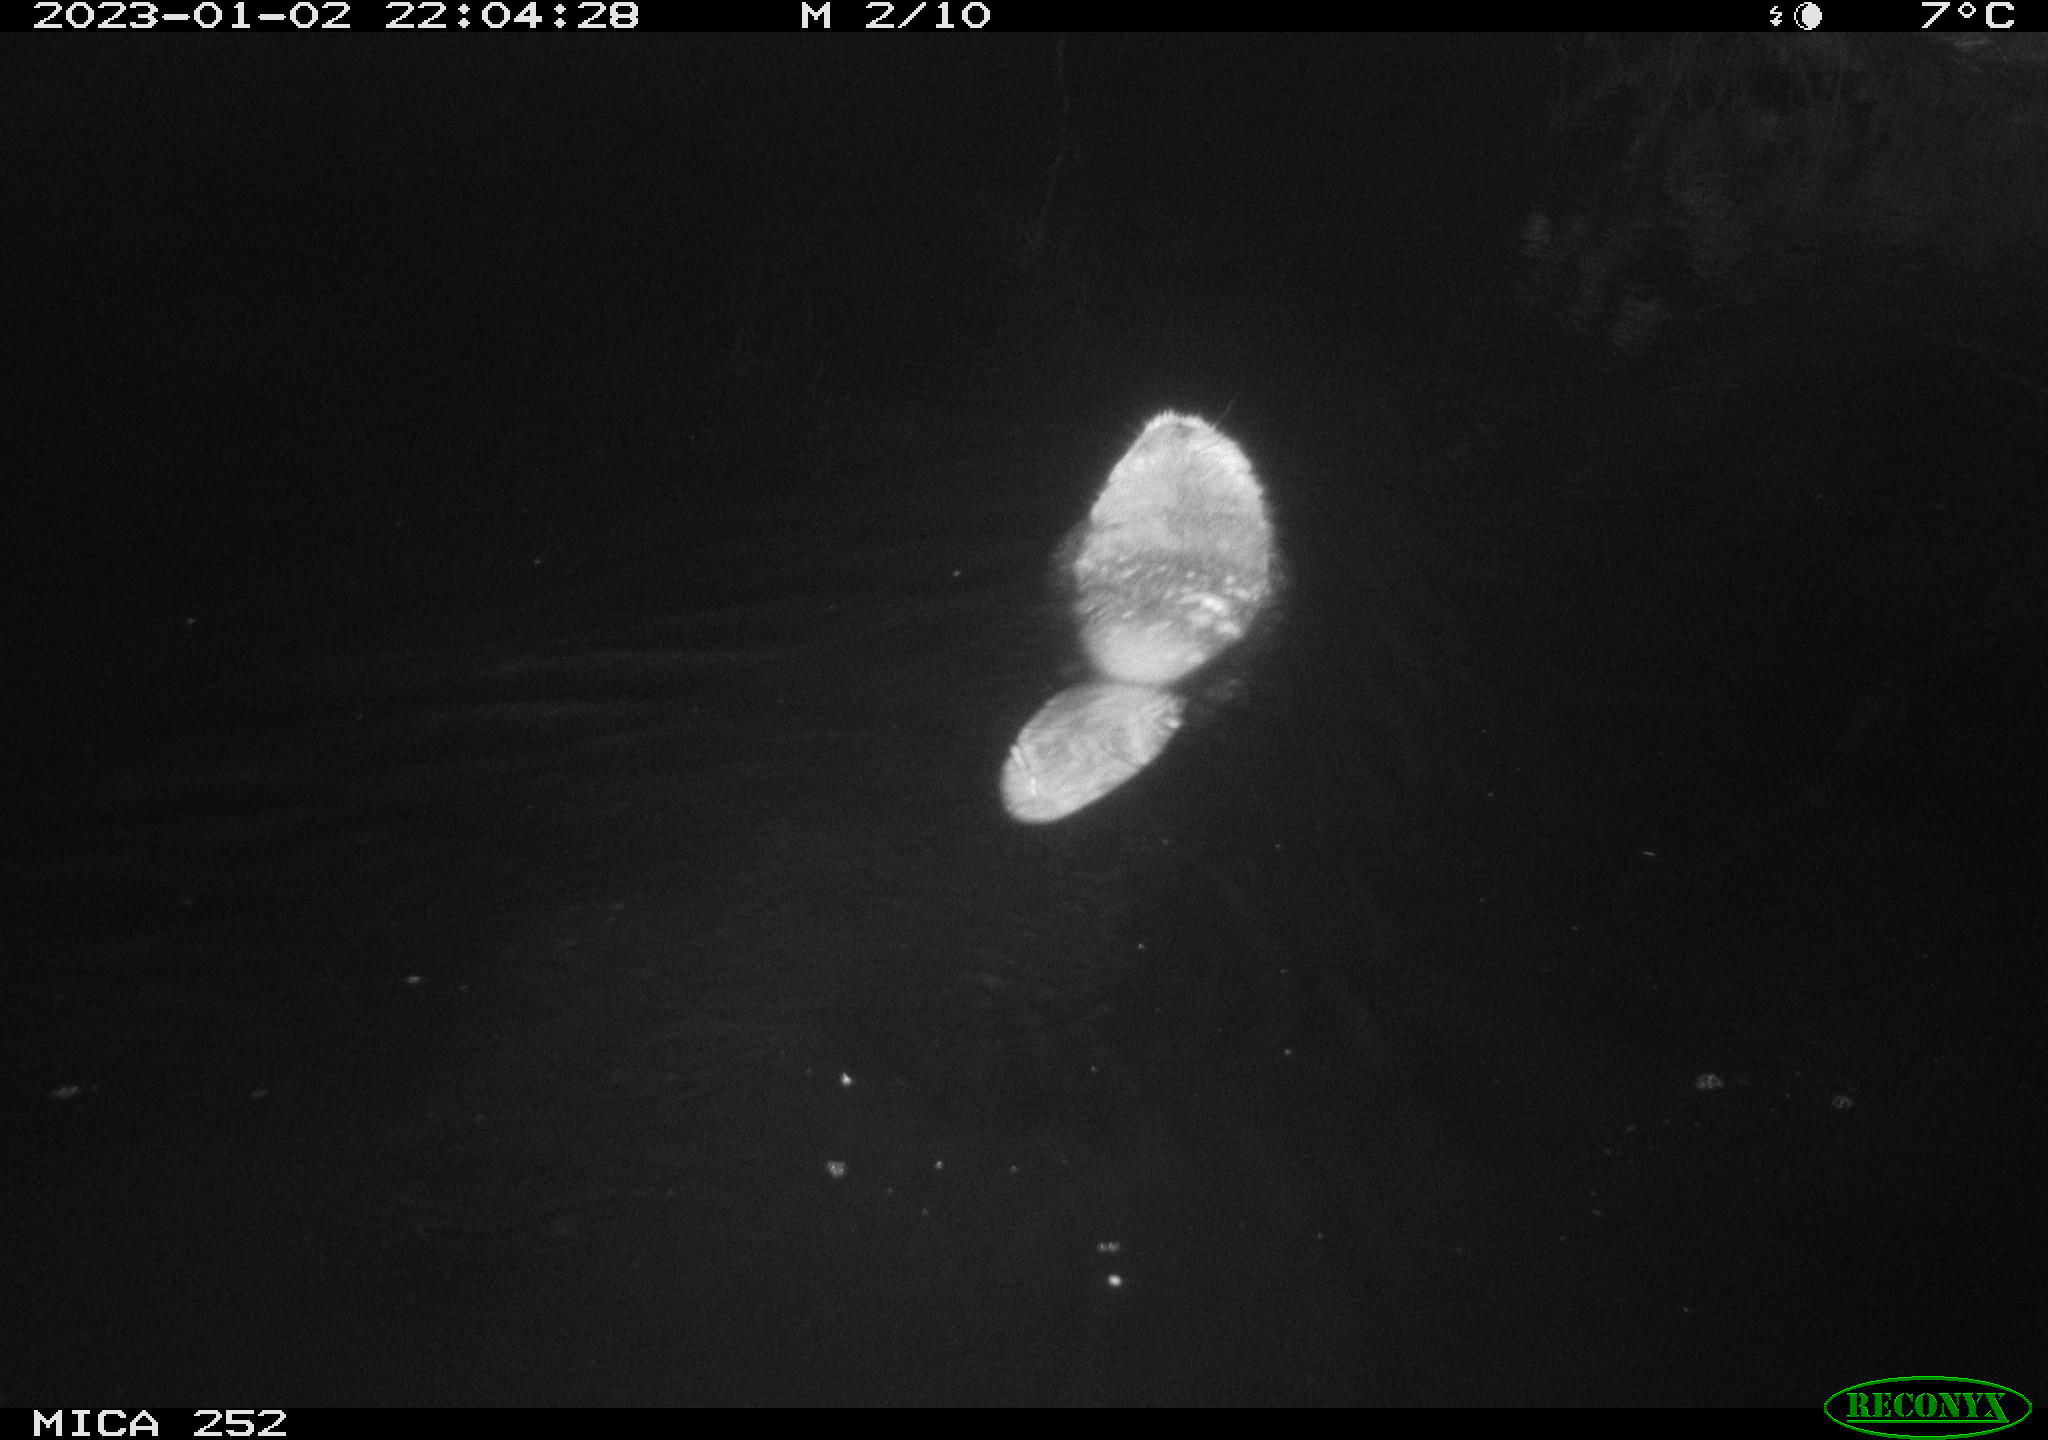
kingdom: Animalia
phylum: Chordata
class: Mammalia
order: Rodentia
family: Castoridae
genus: Castor
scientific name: Castor fiber
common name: Eurasian beaver
